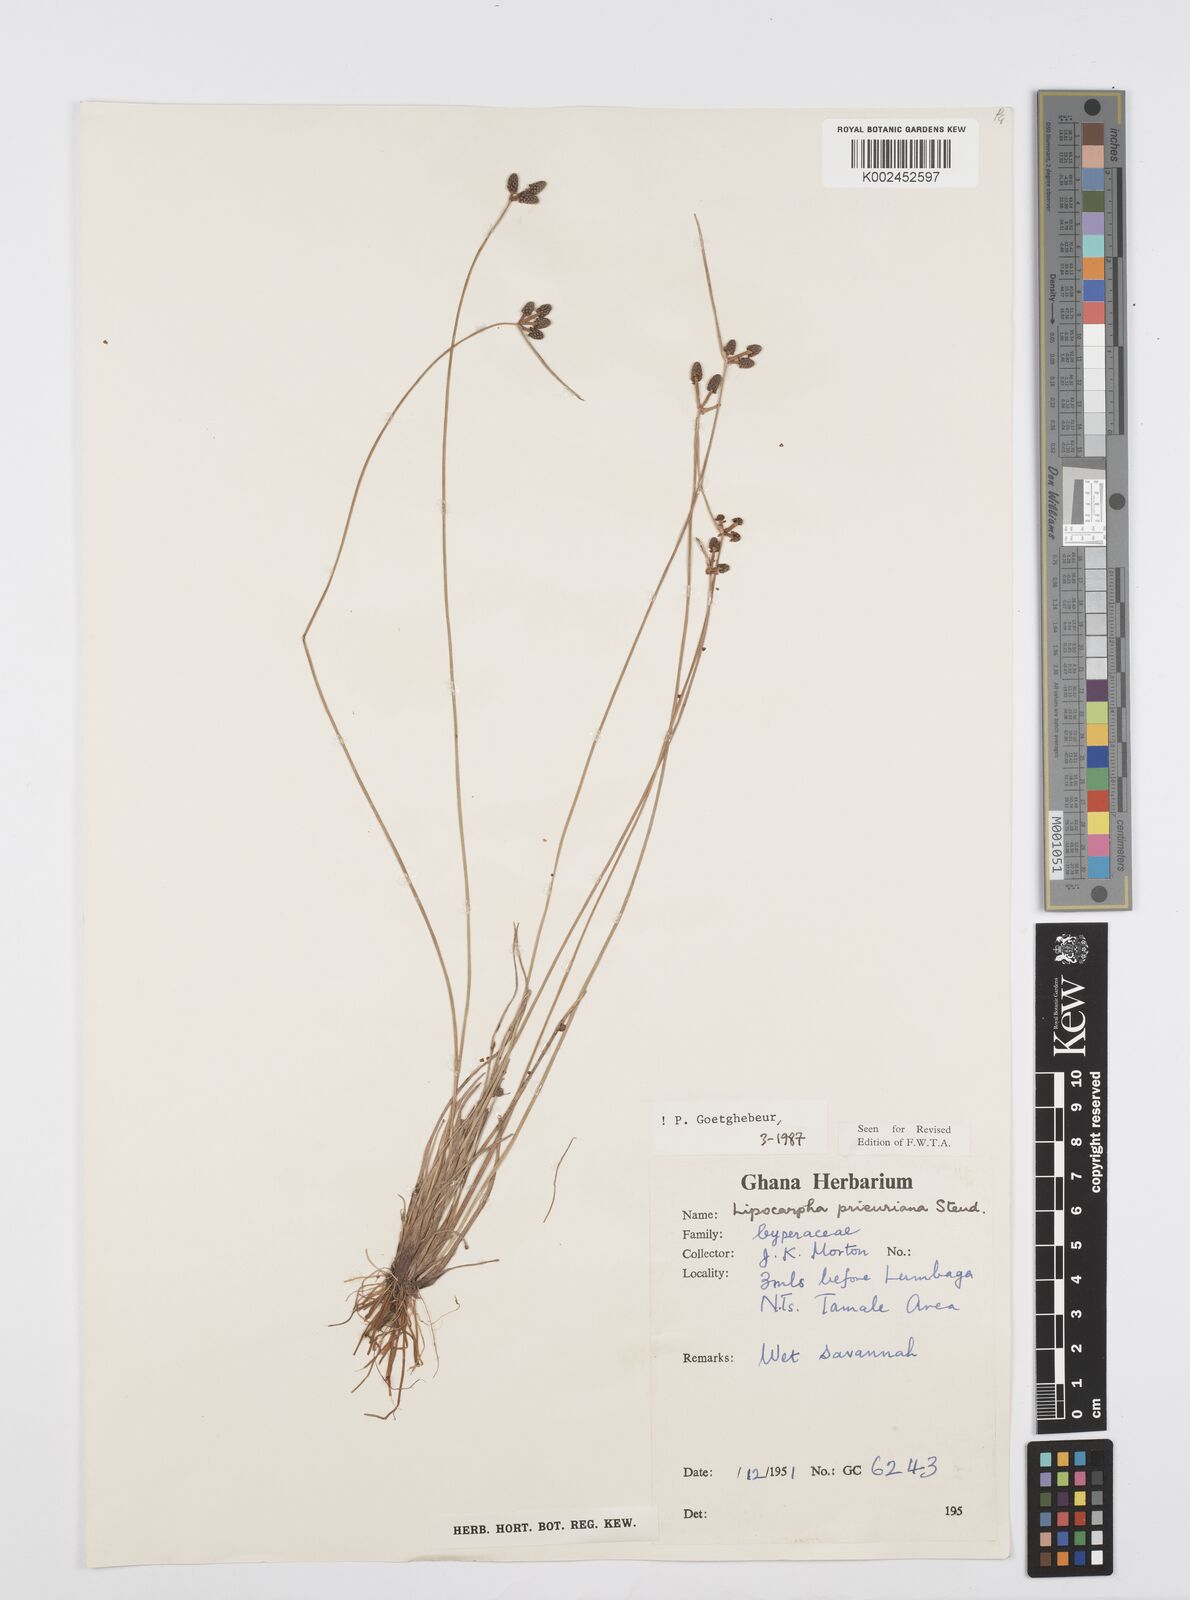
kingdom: Plantae
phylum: Tracheophyta
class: Liliopsida
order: Poales
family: Cyperaceae
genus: Cyperus
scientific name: Cyperus prieurianus
